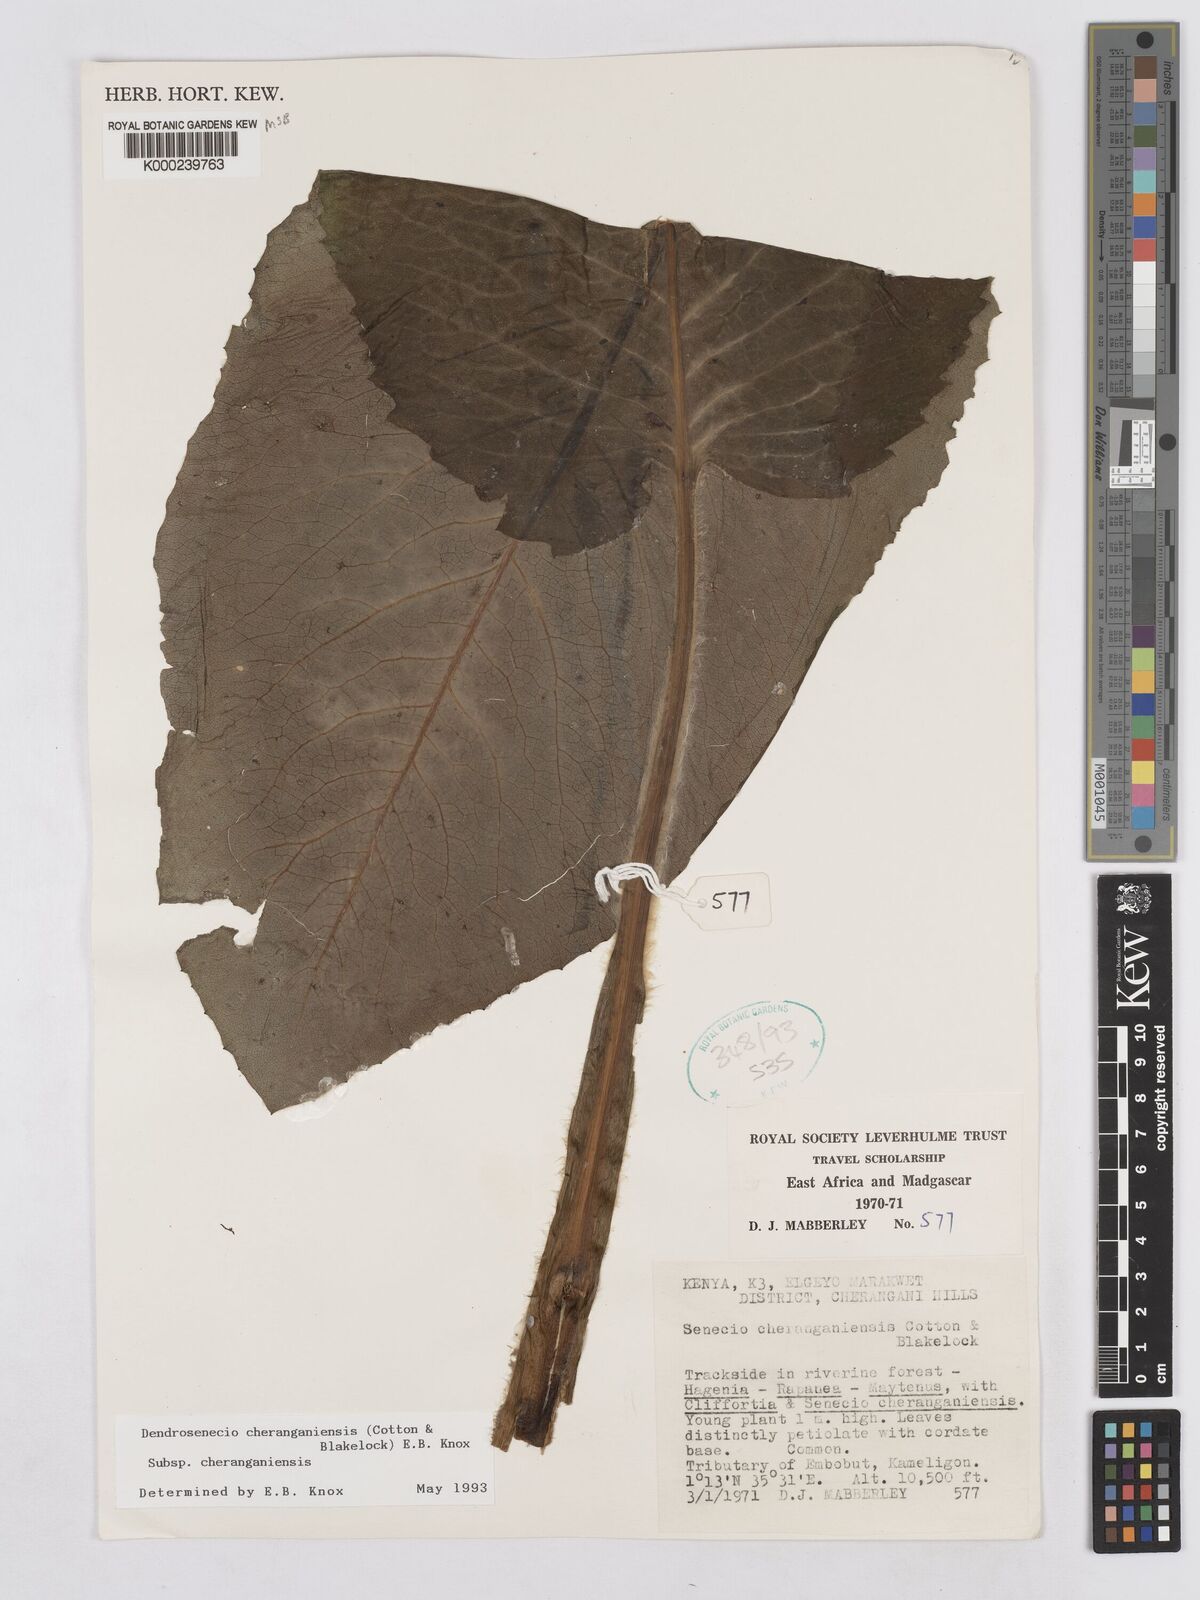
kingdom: Plantae
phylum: Tracheophyta
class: Magnoliopsida
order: Asterales
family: Asteraceae
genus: Dendrosenecio
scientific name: Dendrosenecio cheranganiensis
